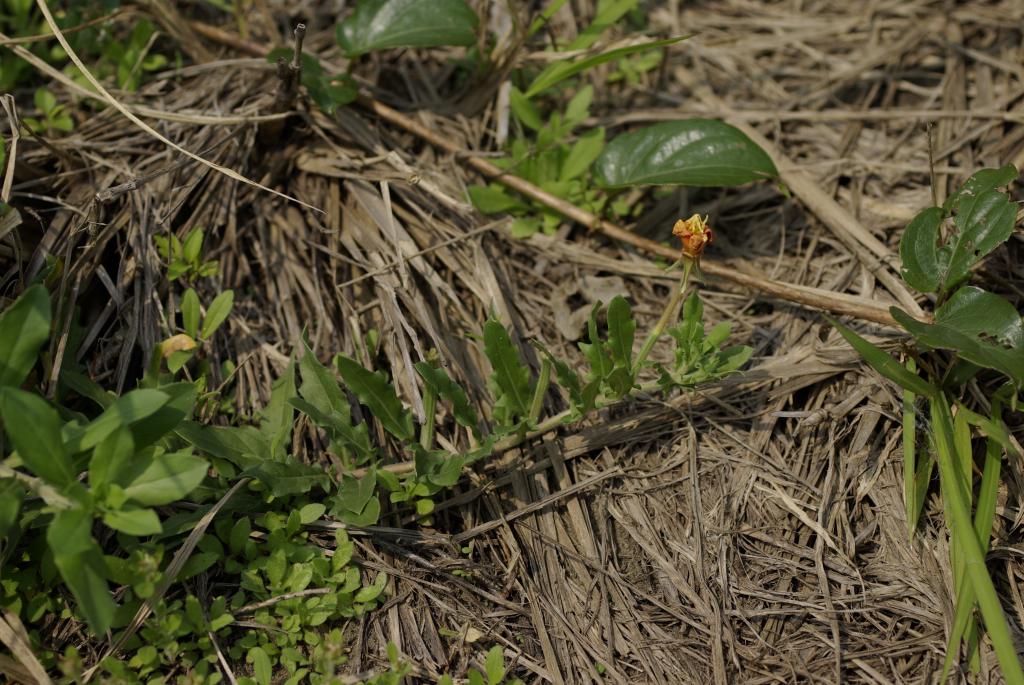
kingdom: Plantae
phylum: Tracheophyta
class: Magnoliopsida
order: Myrtales
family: Onagraceae
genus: Oenothera
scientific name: Oenothera laciniata
